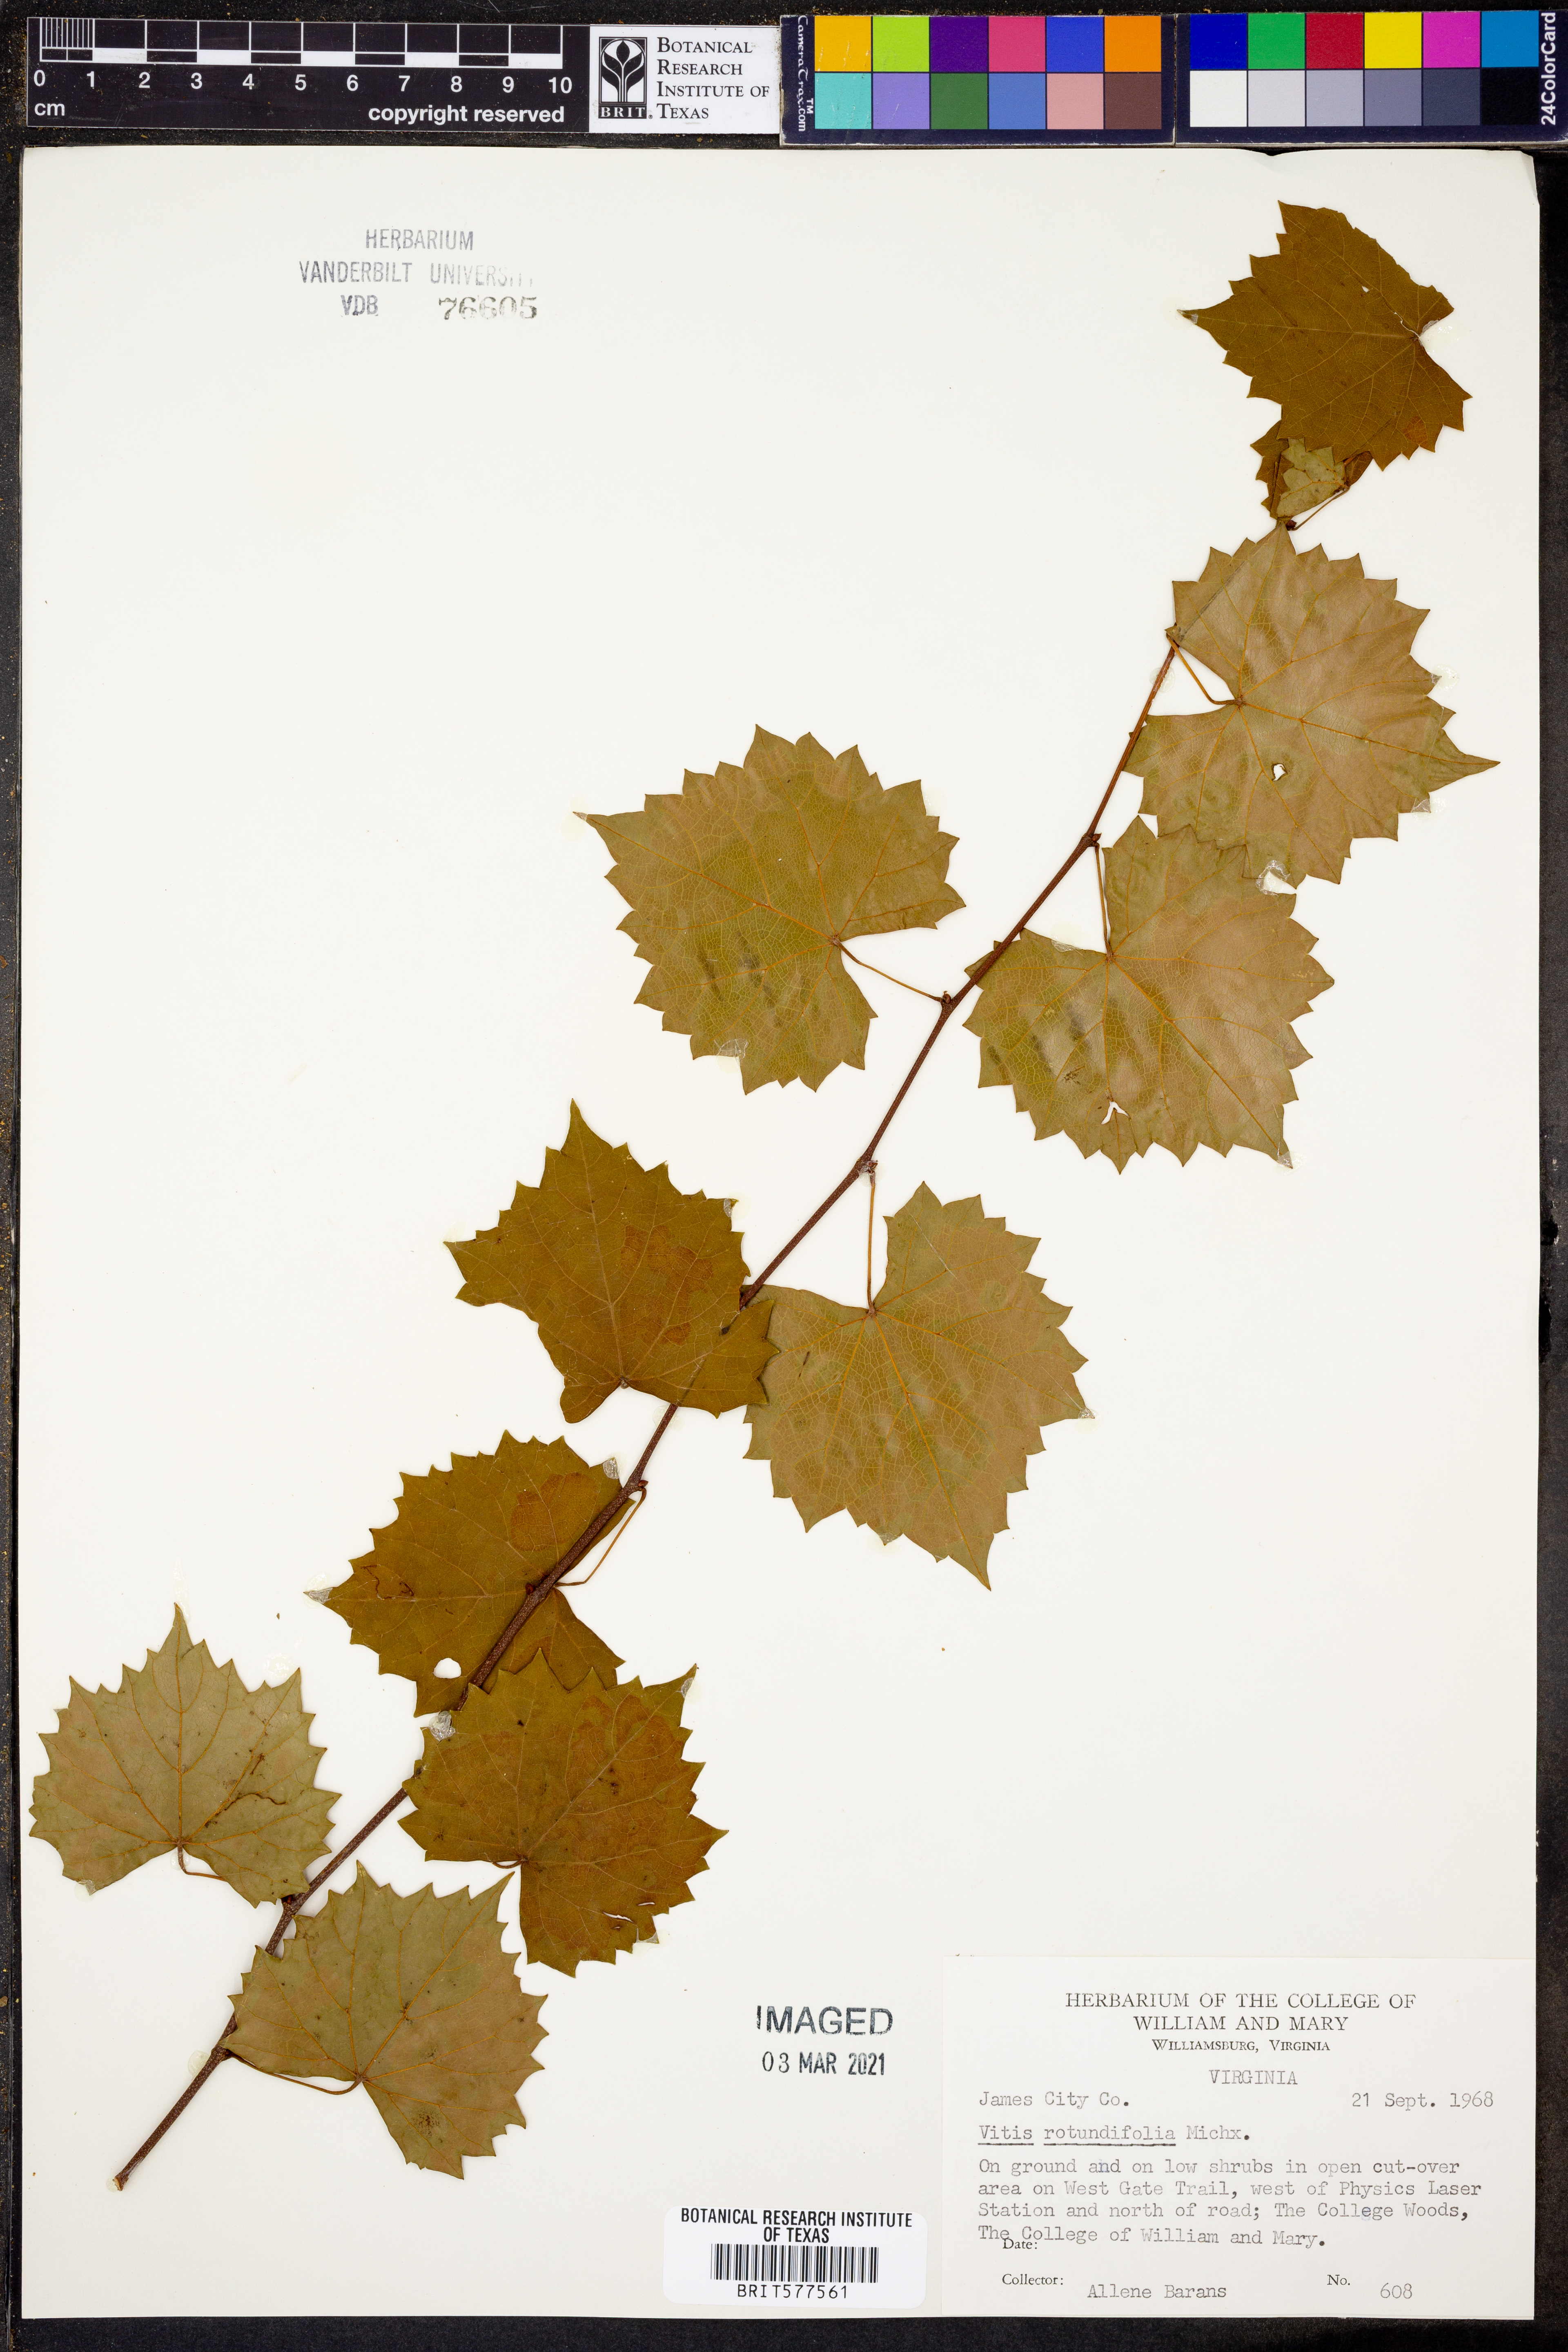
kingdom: Plantae
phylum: Tracheophyta
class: Magnoliopsida
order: Vitales
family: Vitaceae
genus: Vitis
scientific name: Vitis rotundifolia
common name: Muscadine grape
